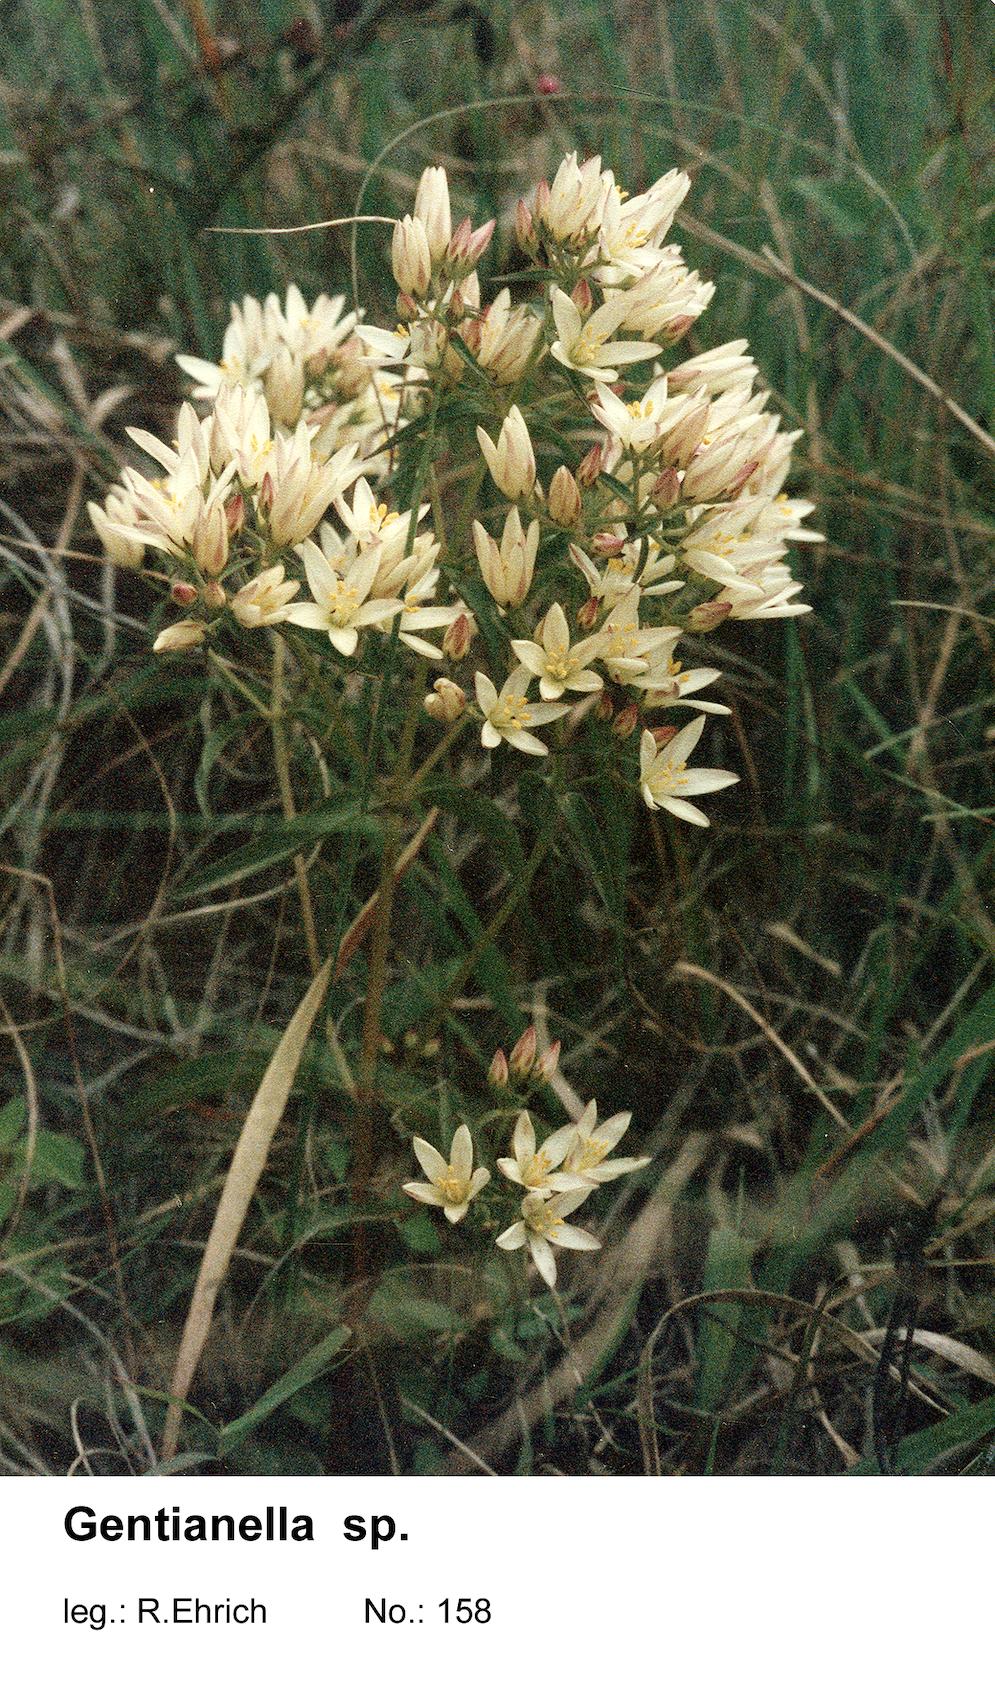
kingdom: Plantae
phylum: Tracheophyta
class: Magnoliopsida
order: Gentianales
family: Gentianaceae
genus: Gentianella
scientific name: Gentianella florida
